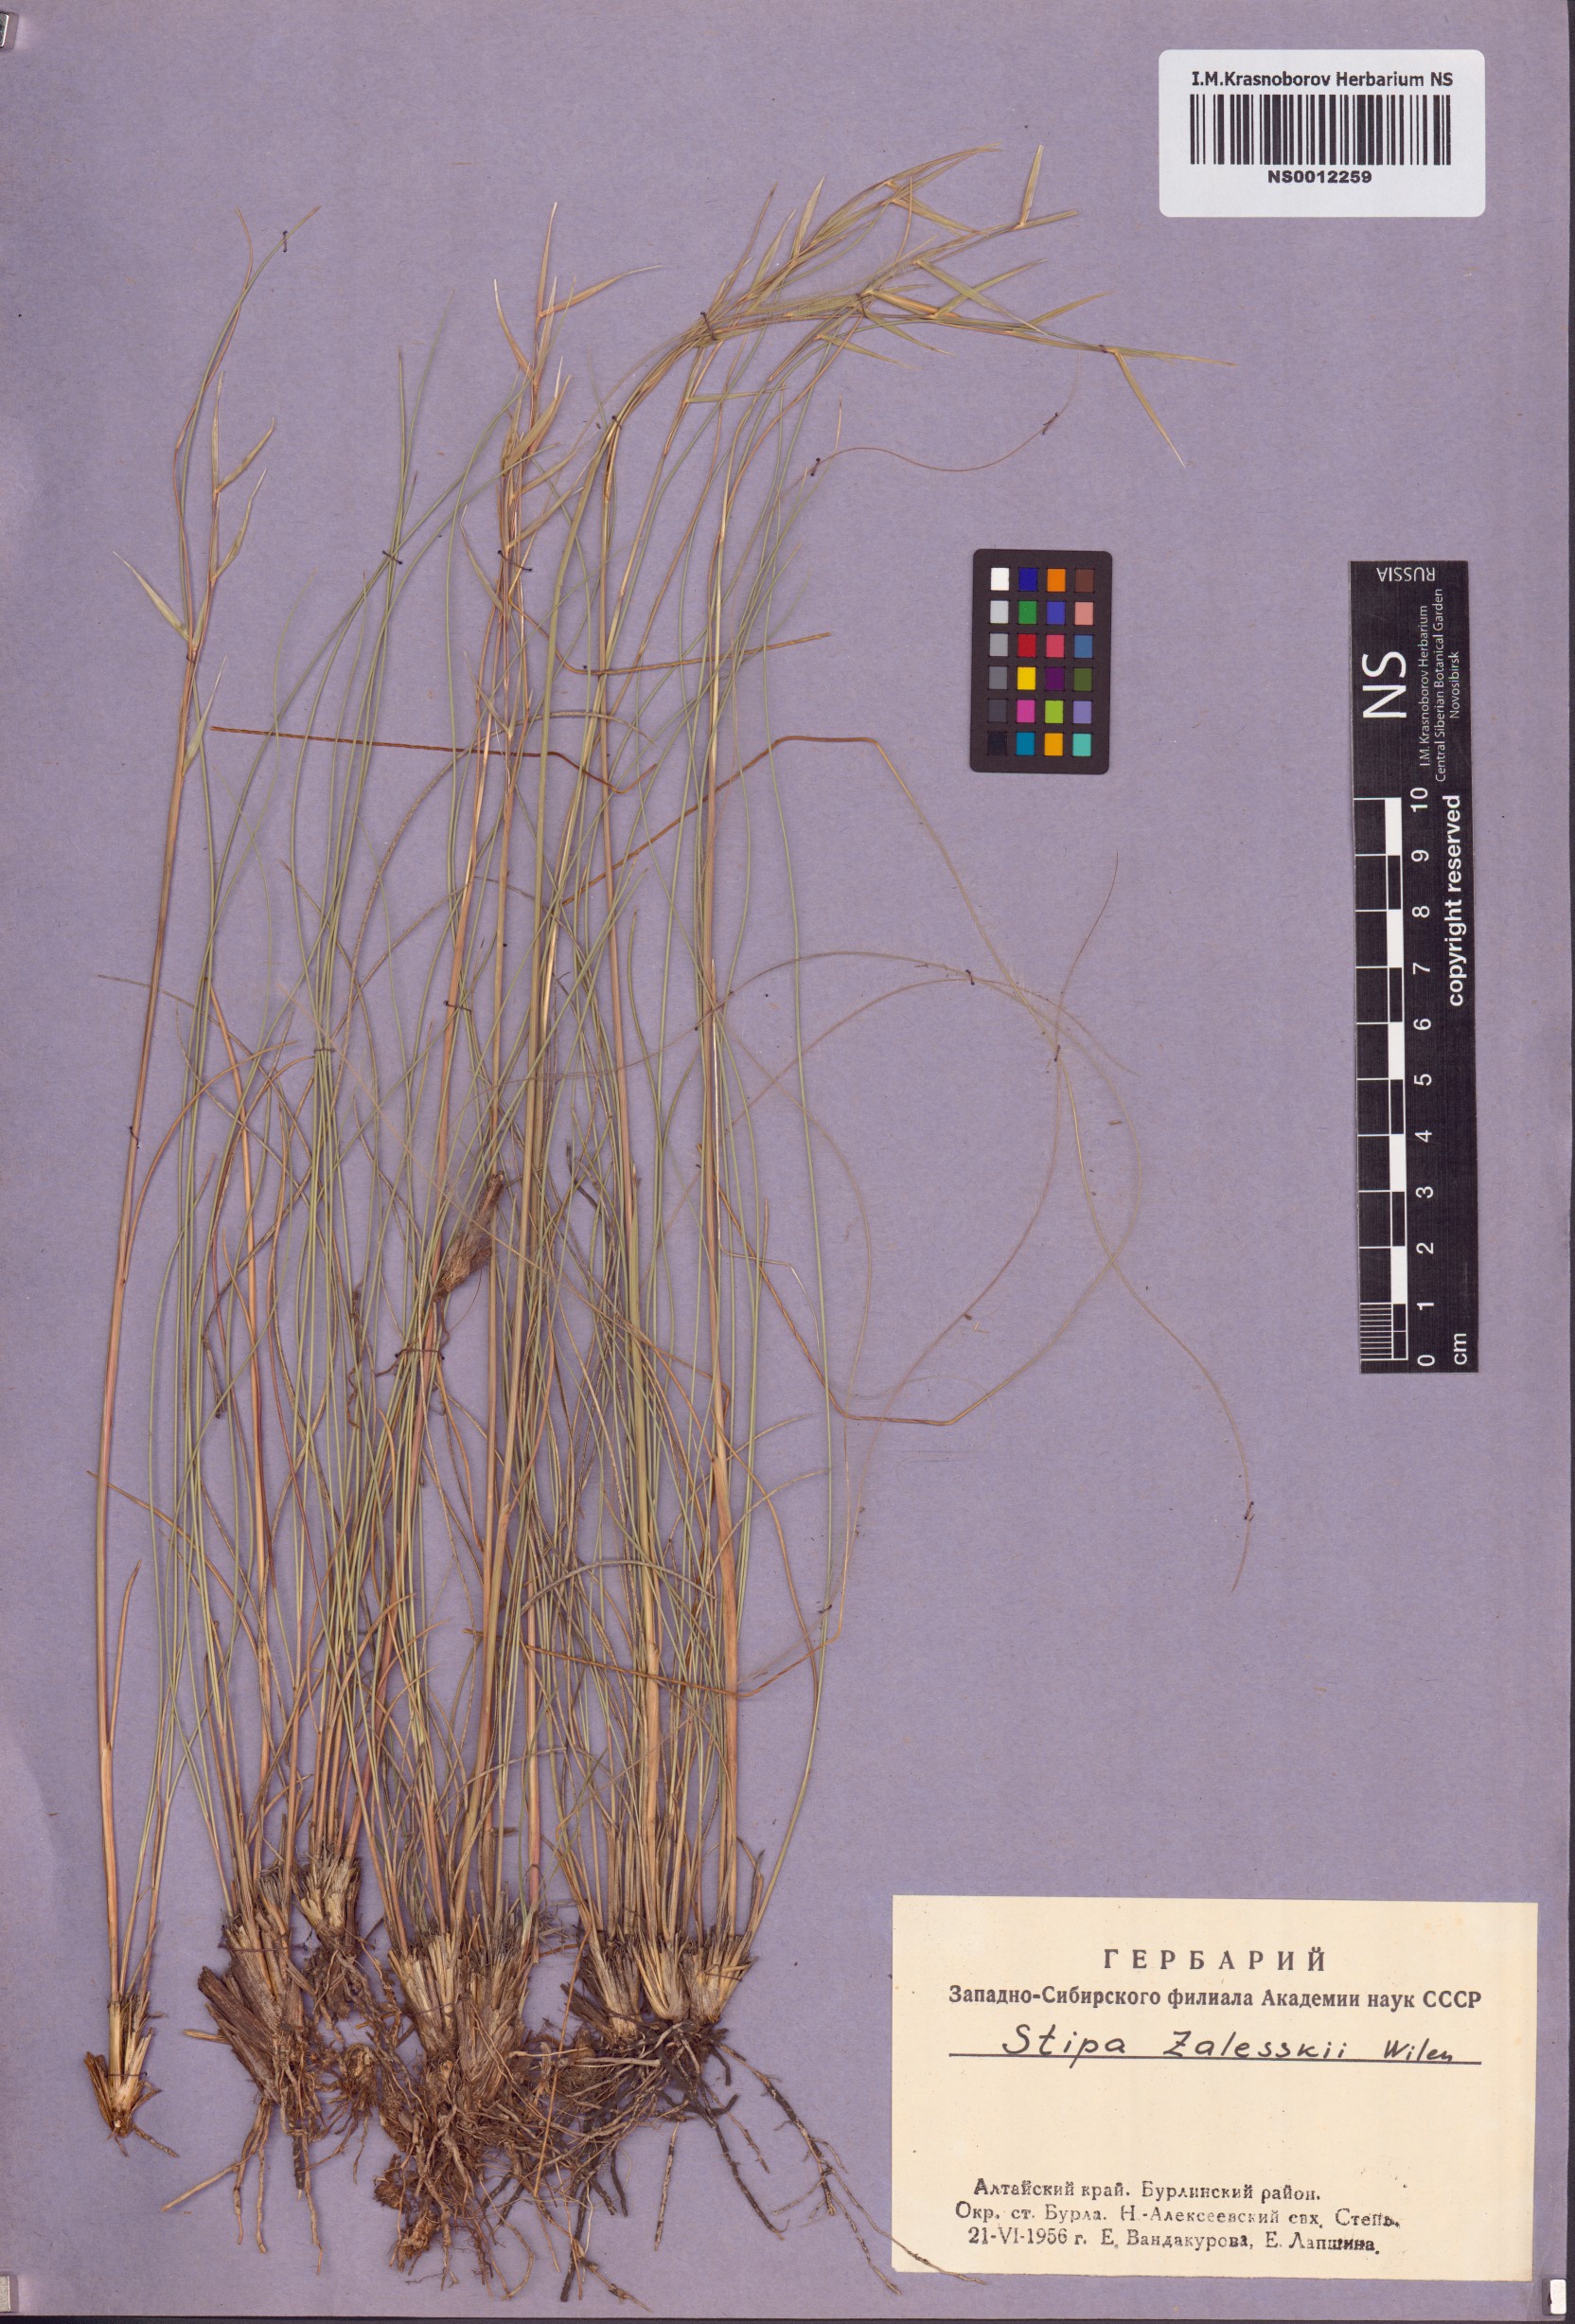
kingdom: Plantae
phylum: Tracheophyta
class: Liliopsida
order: Poales
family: Poaceae
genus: Stipa
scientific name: Stipa zalesskii
